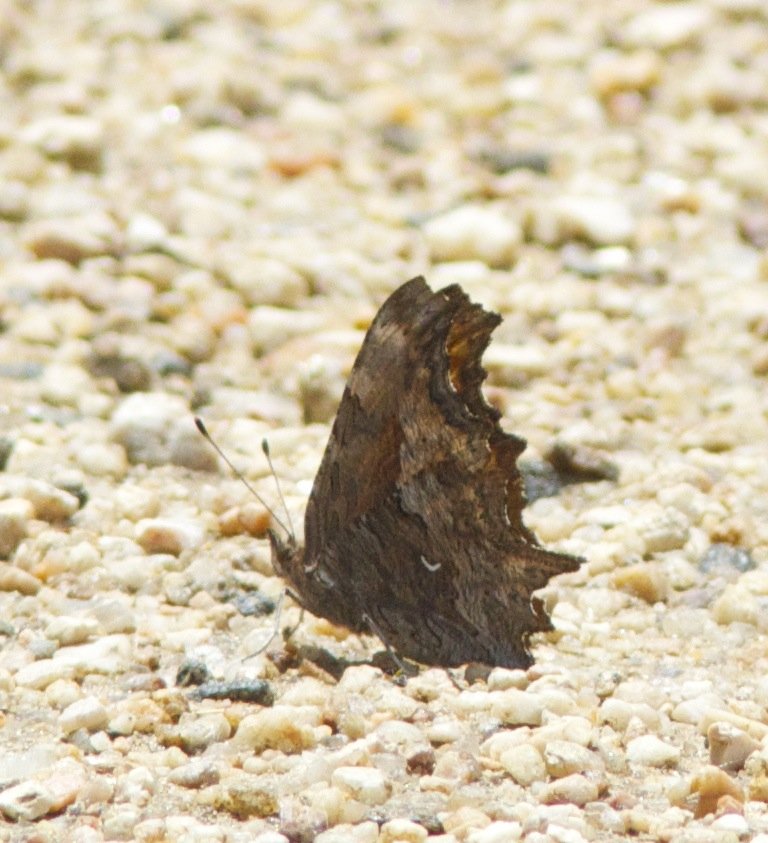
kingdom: Animalia
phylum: Arthropoda
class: Insecta
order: Lepidoptera
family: Nymphalidae
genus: Polygonia
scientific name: Polygonia gracilis
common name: Hoary Comma
